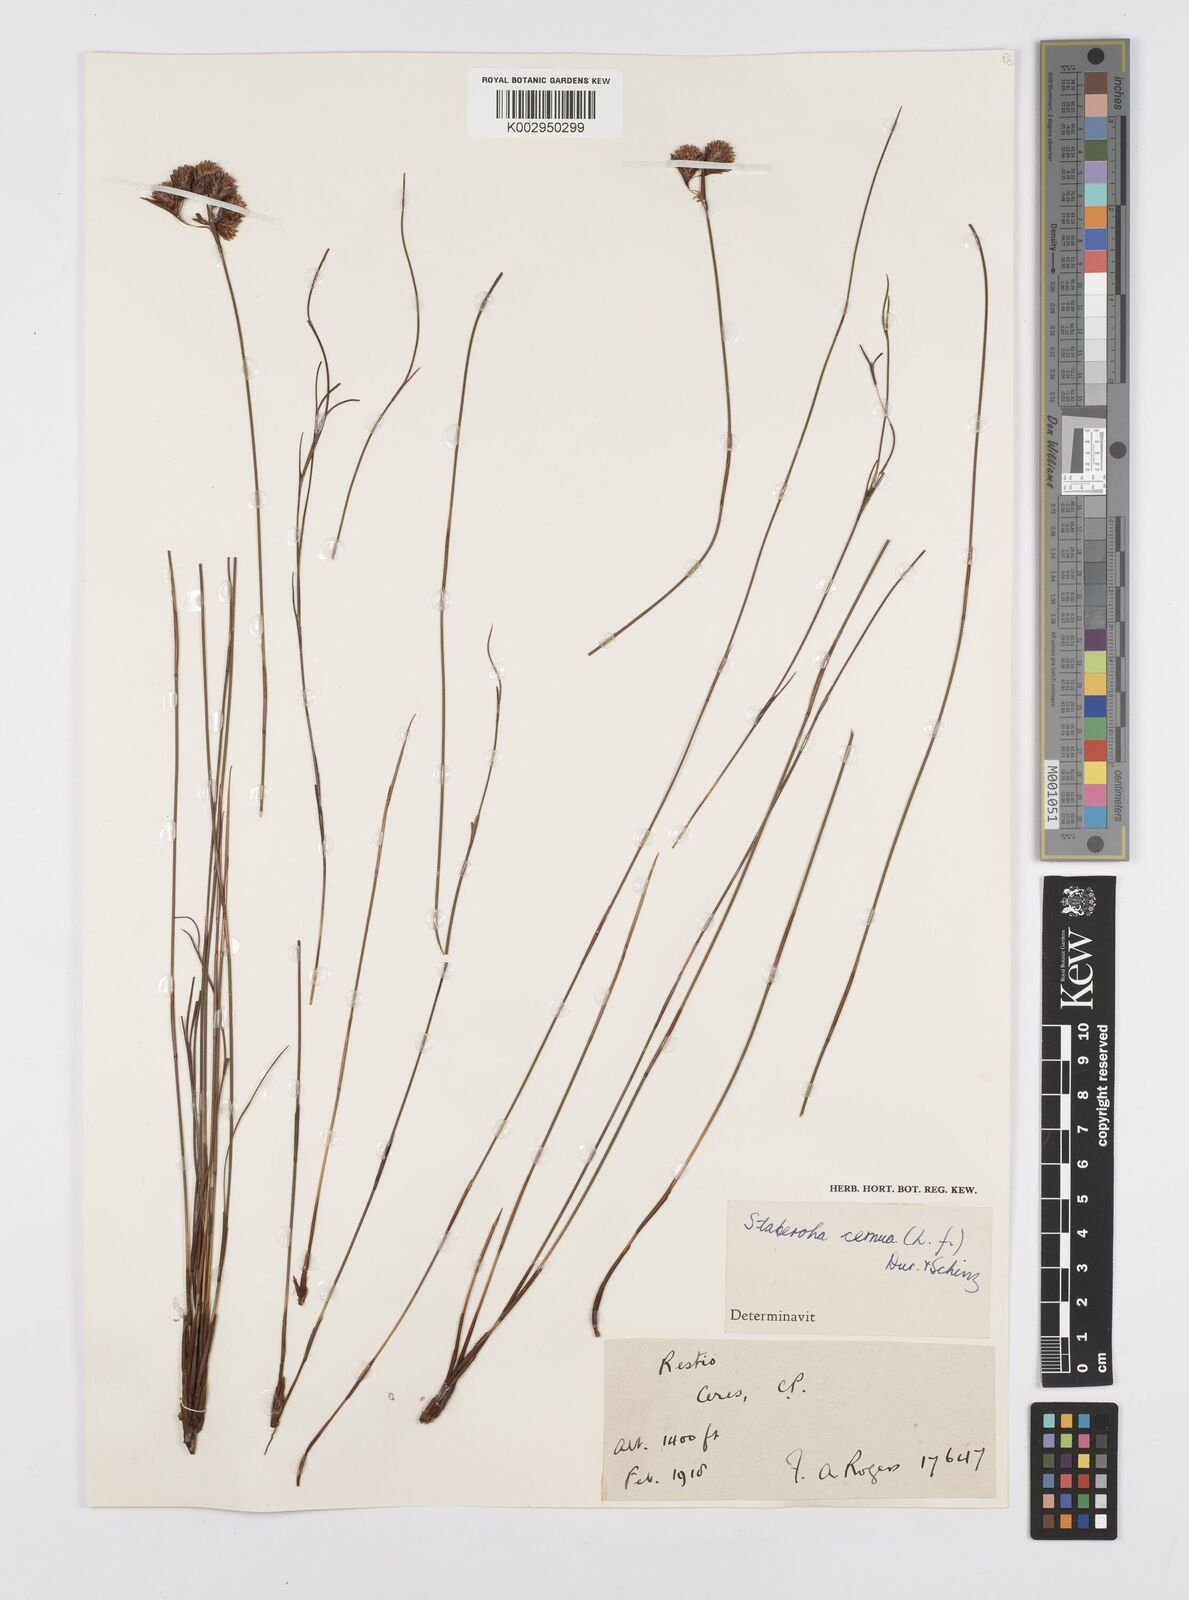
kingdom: Plantae
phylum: Tracheophyta
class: Liliopsida
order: Poales
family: Restionaceae
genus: Staberoha
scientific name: Staberoha cernua
